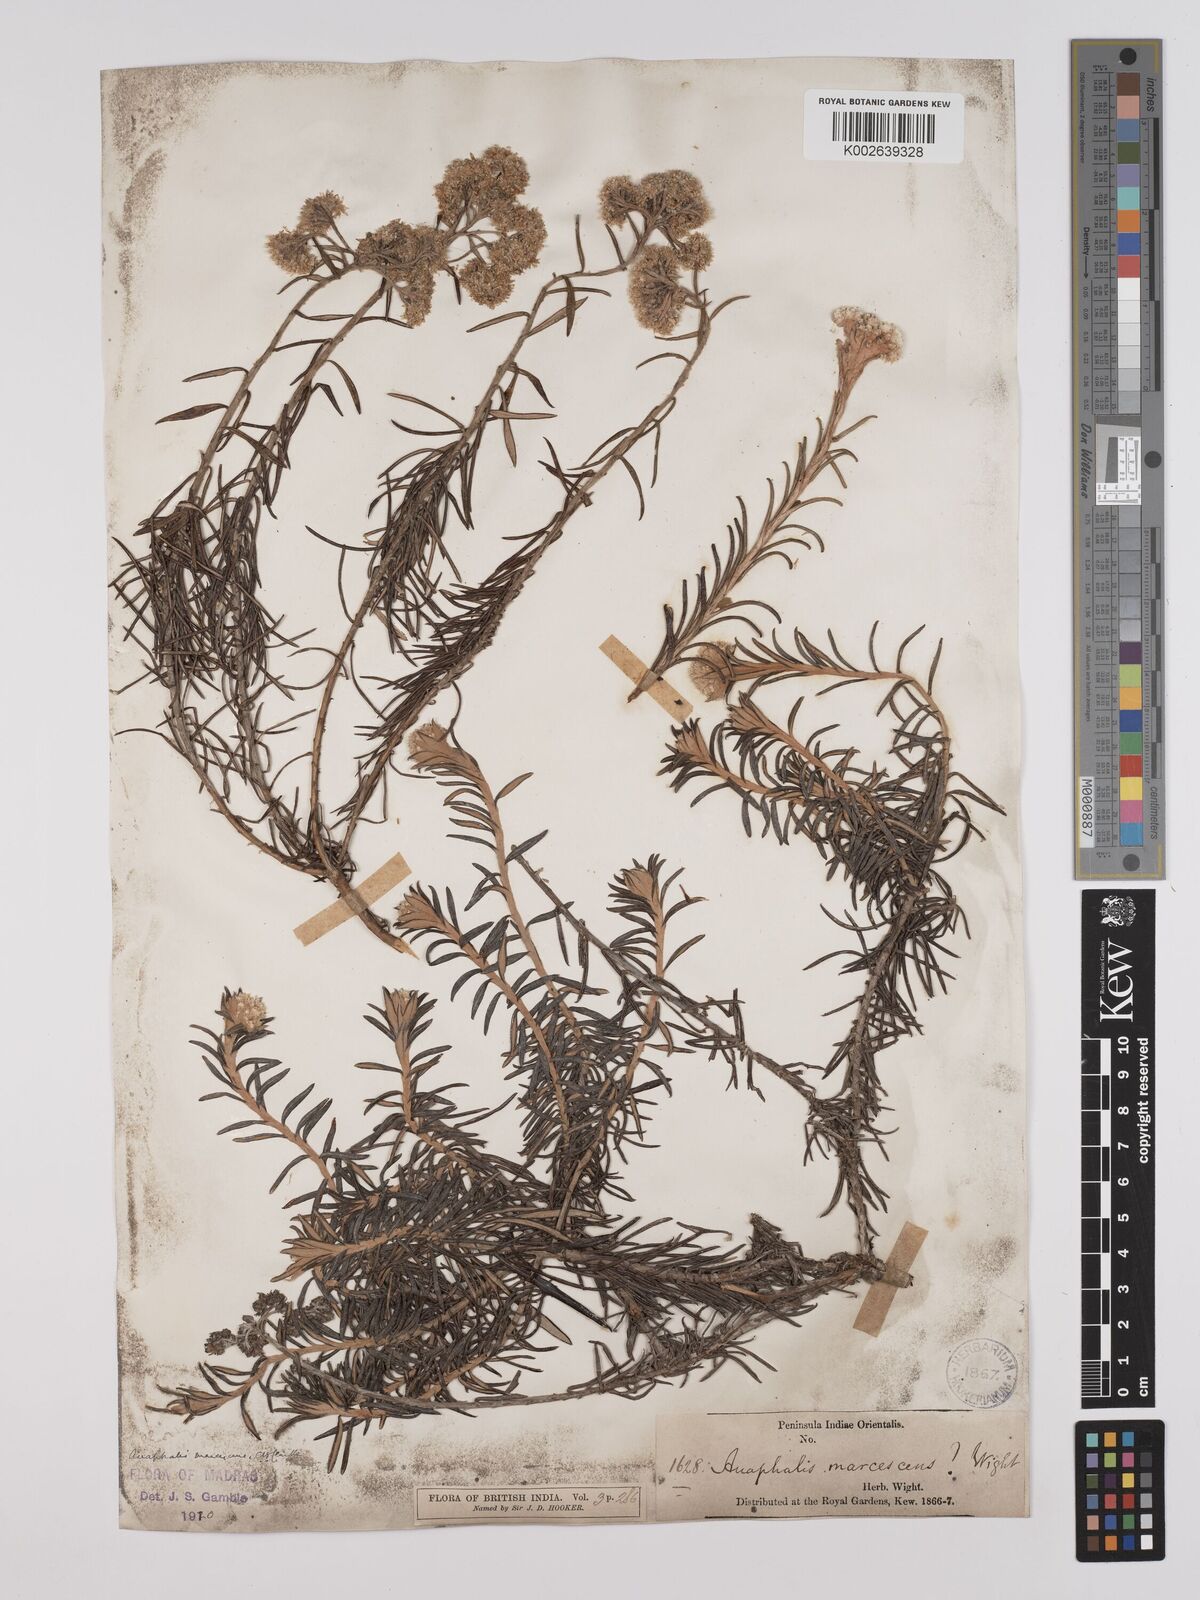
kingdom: Plantae
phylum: Tracheophyta
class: Magnoliopsida
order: Asterales
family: Asteraceae
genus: Anaphalis
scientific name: Anaphalis marcescens
